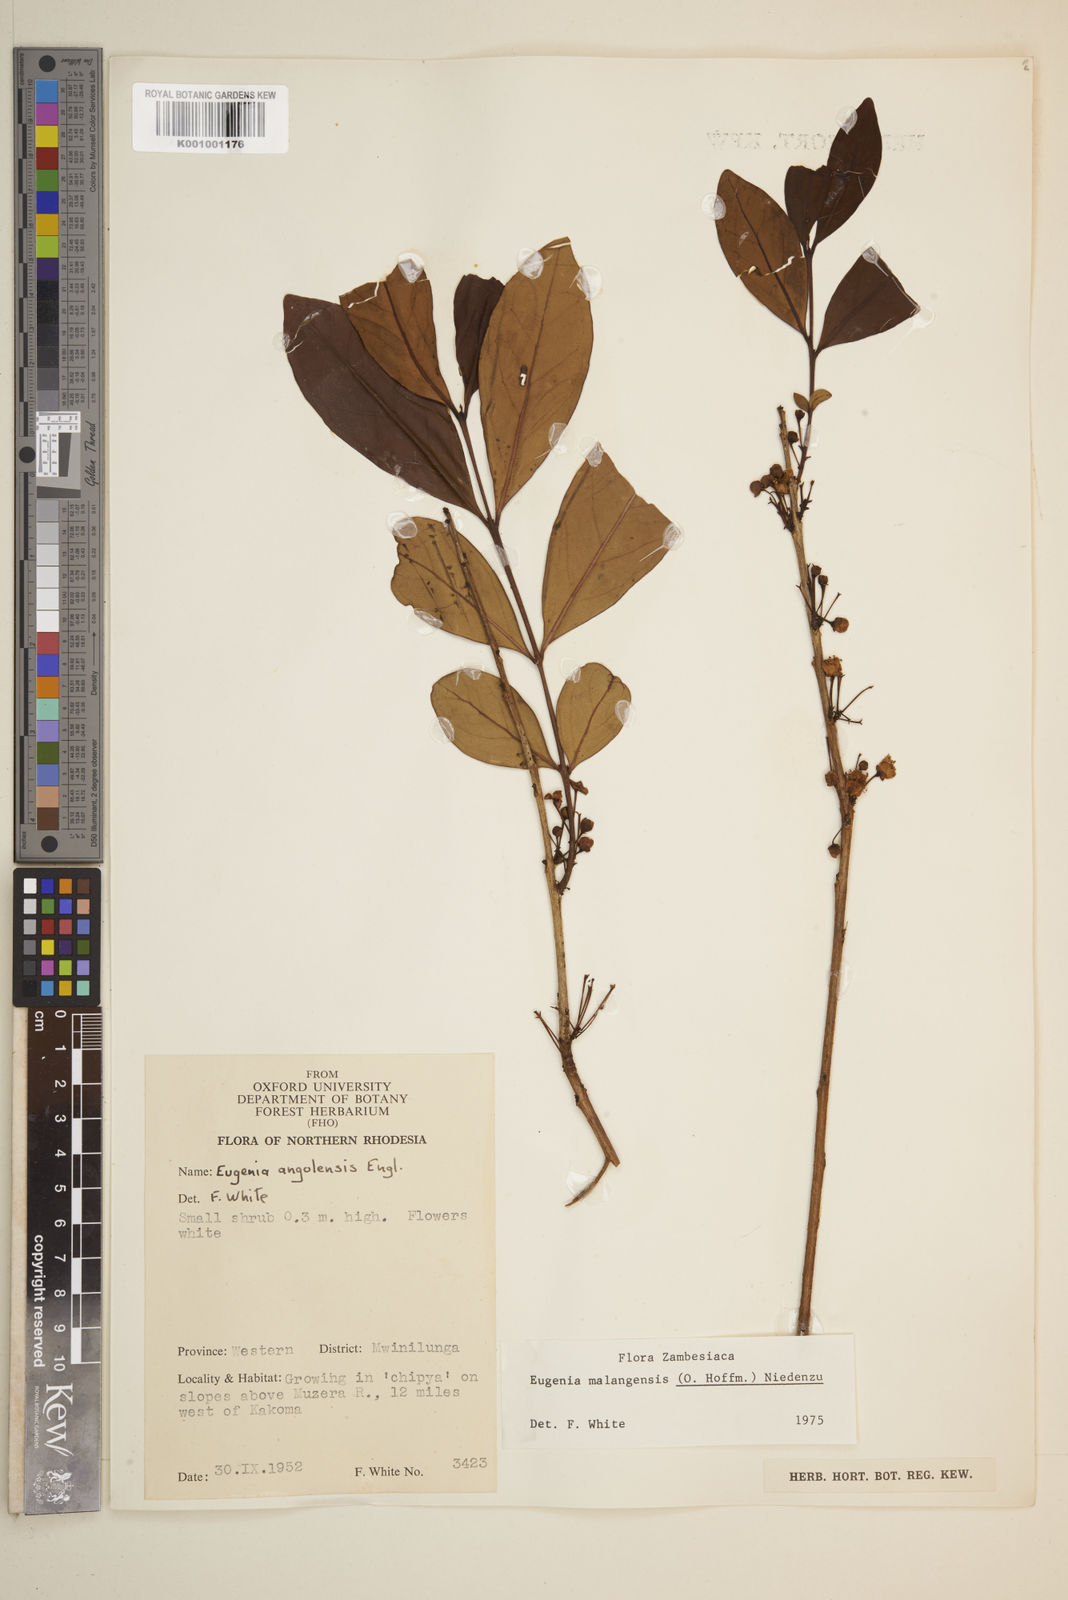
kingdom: Plantae
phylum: Tracheophyta
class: Magnoliopsida
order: Myrtales
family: Myrtaceae
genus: Eugenia
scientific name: Eugenia malangensis
